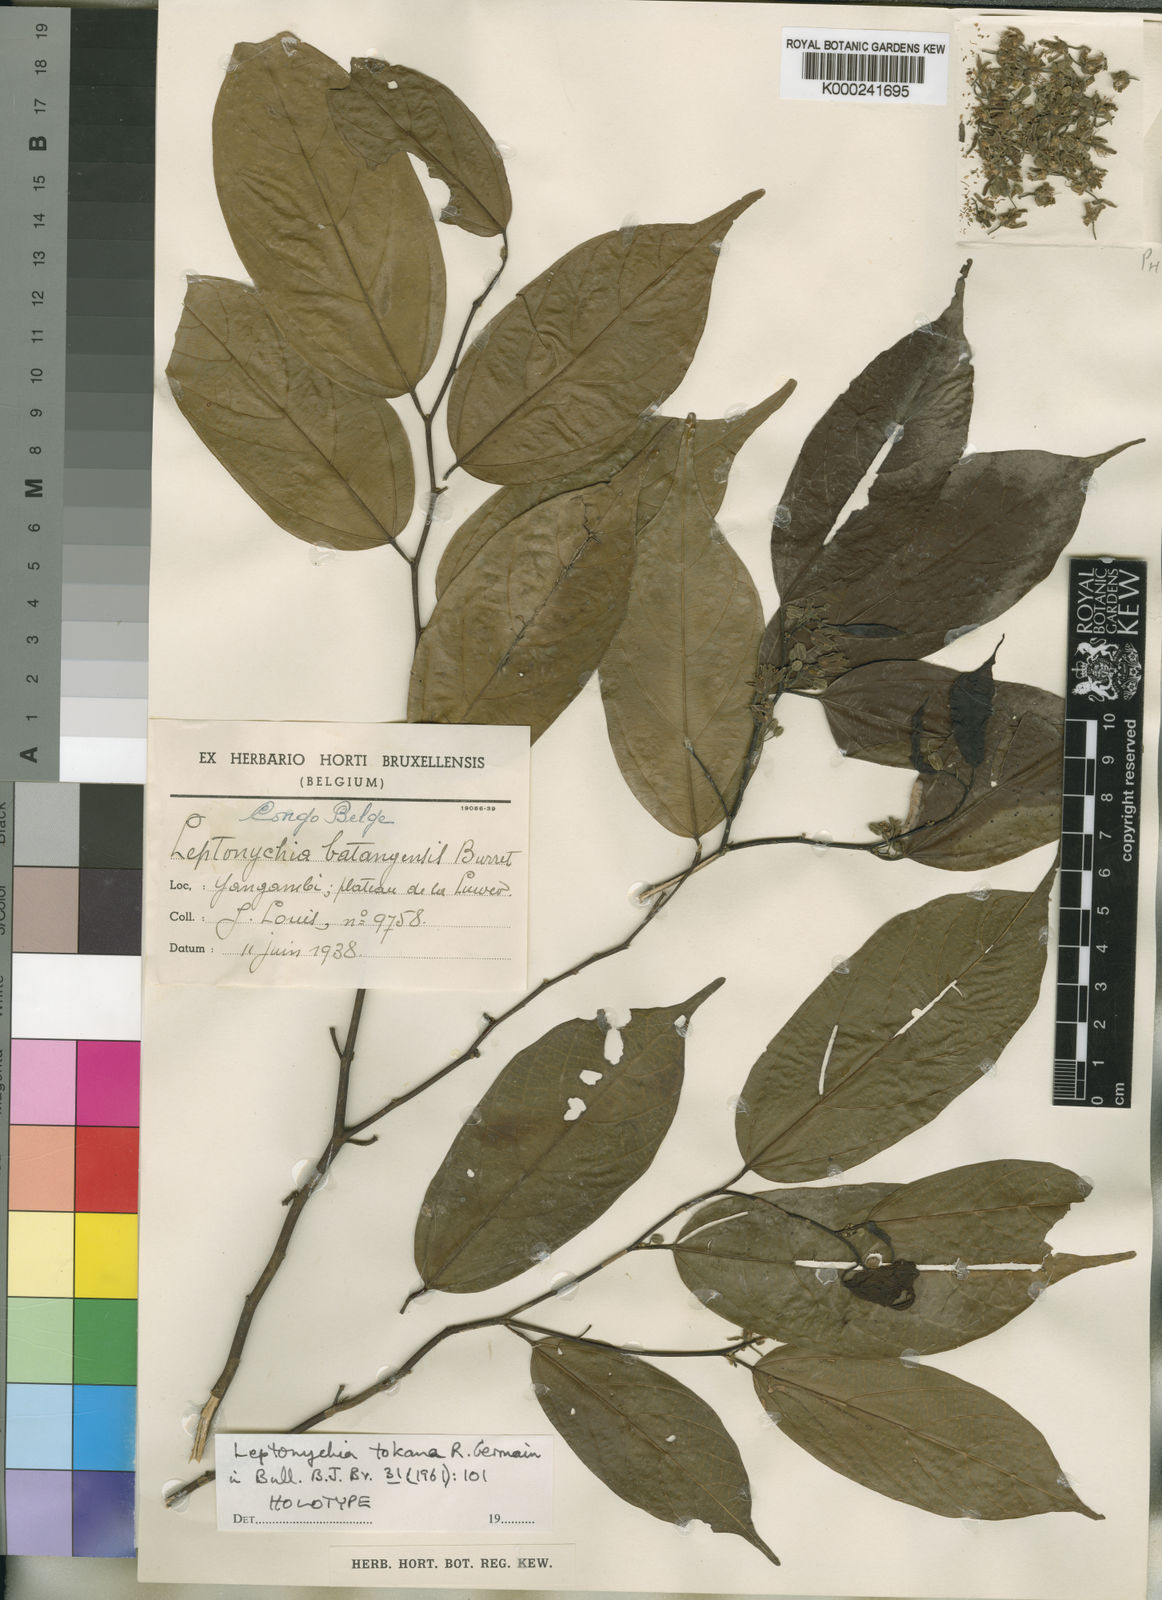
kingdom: Plantae
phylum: Tracheophyta
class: Magnoliopsida
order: Malvales
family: Malvaceae
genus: Leptonychia
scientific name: Leptonychia tokana
